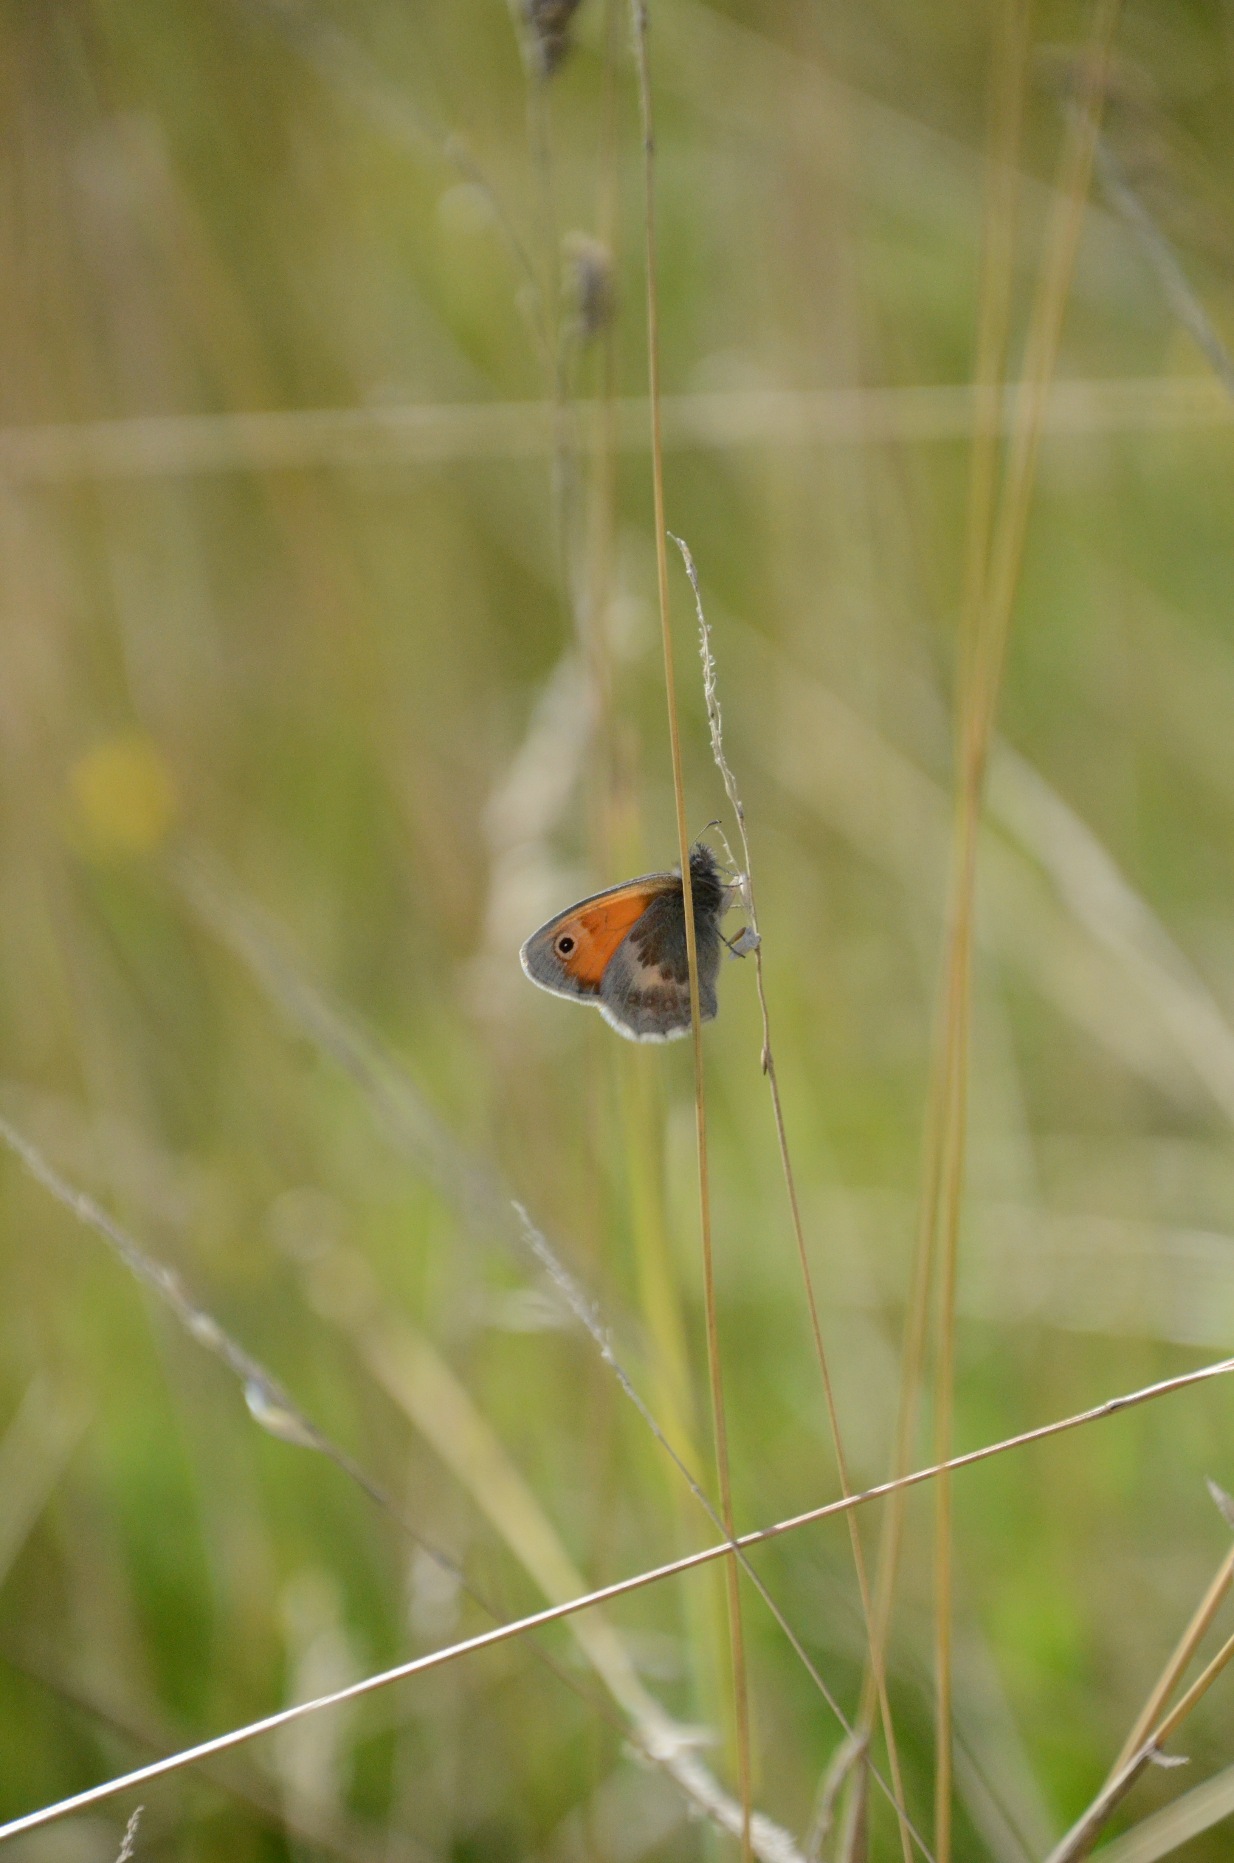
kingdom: Animalia
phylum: Arthropoda
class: Insecta
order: Lepidoptera
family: Nymphalidae
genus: Coenonympha
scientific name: Coenonympha pamphilus
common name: Okkergul randøje
